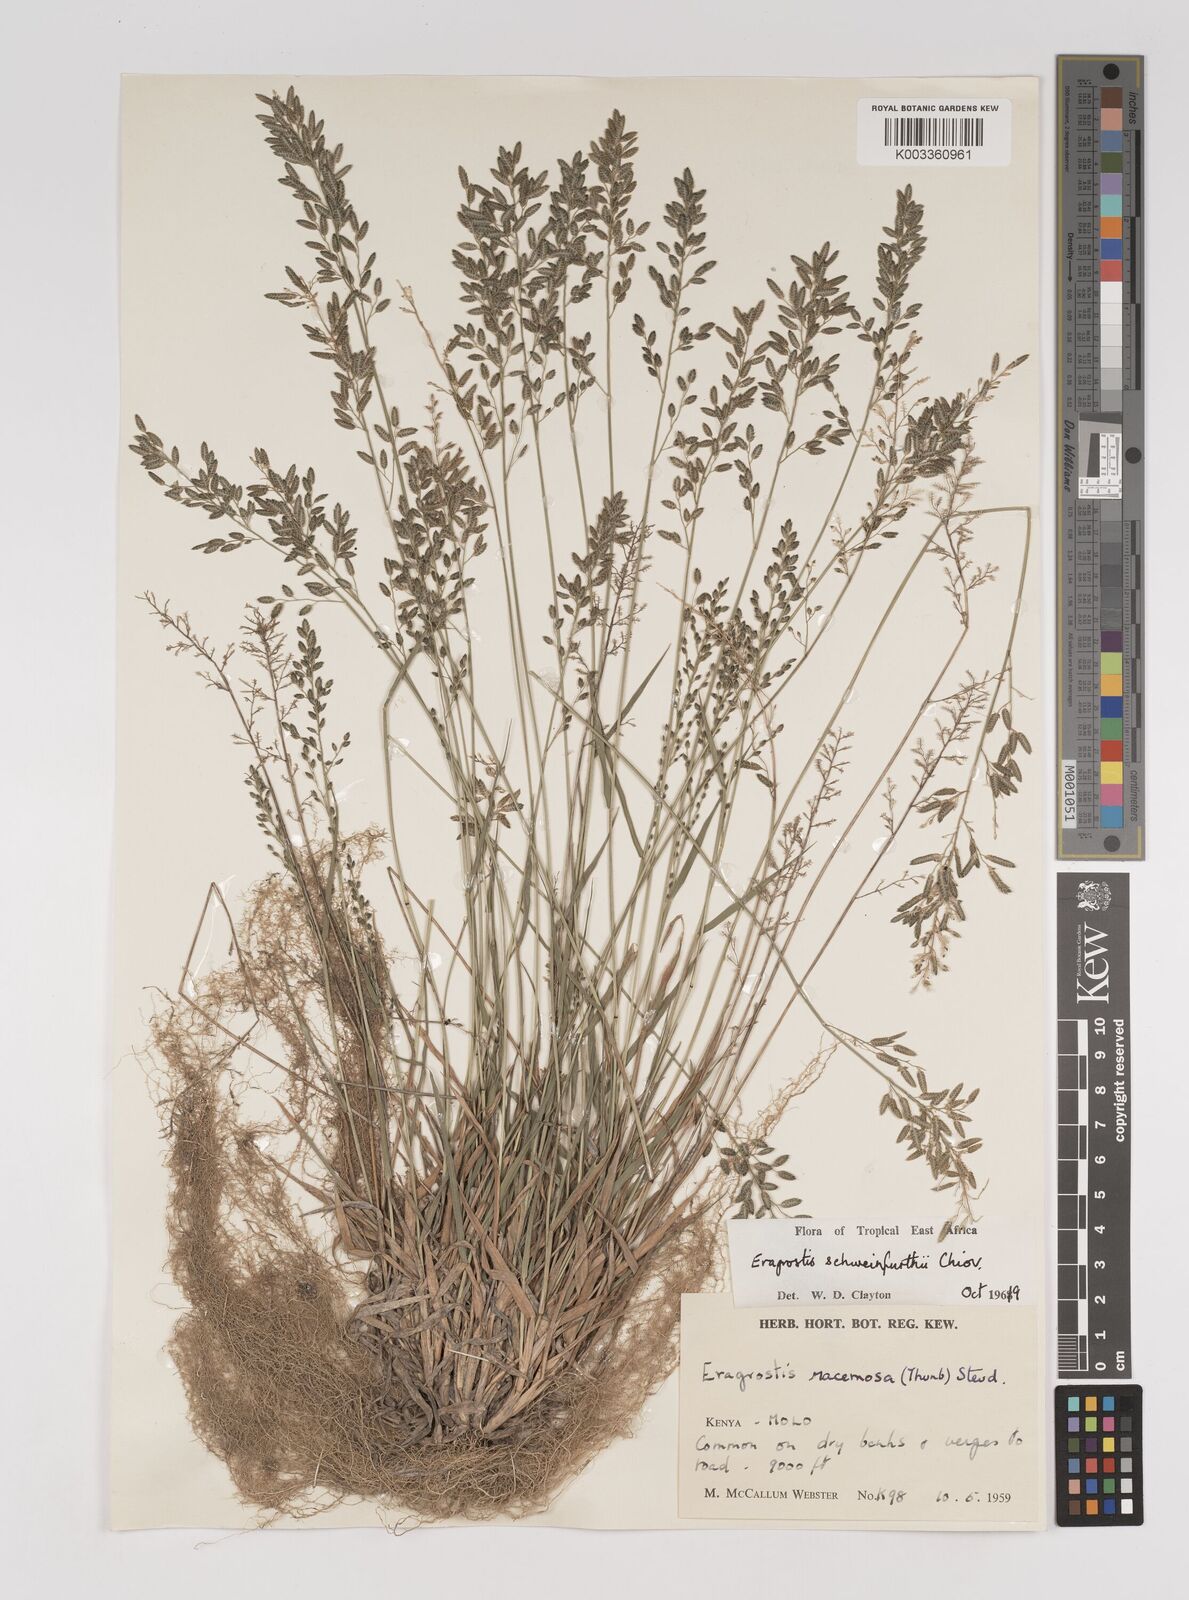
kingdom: Plantae
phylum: Tracheophyta
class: Liliopsida
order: Poales
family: Poaceae
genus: Eragrostis
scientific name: Eragrostis schweinfurthii
